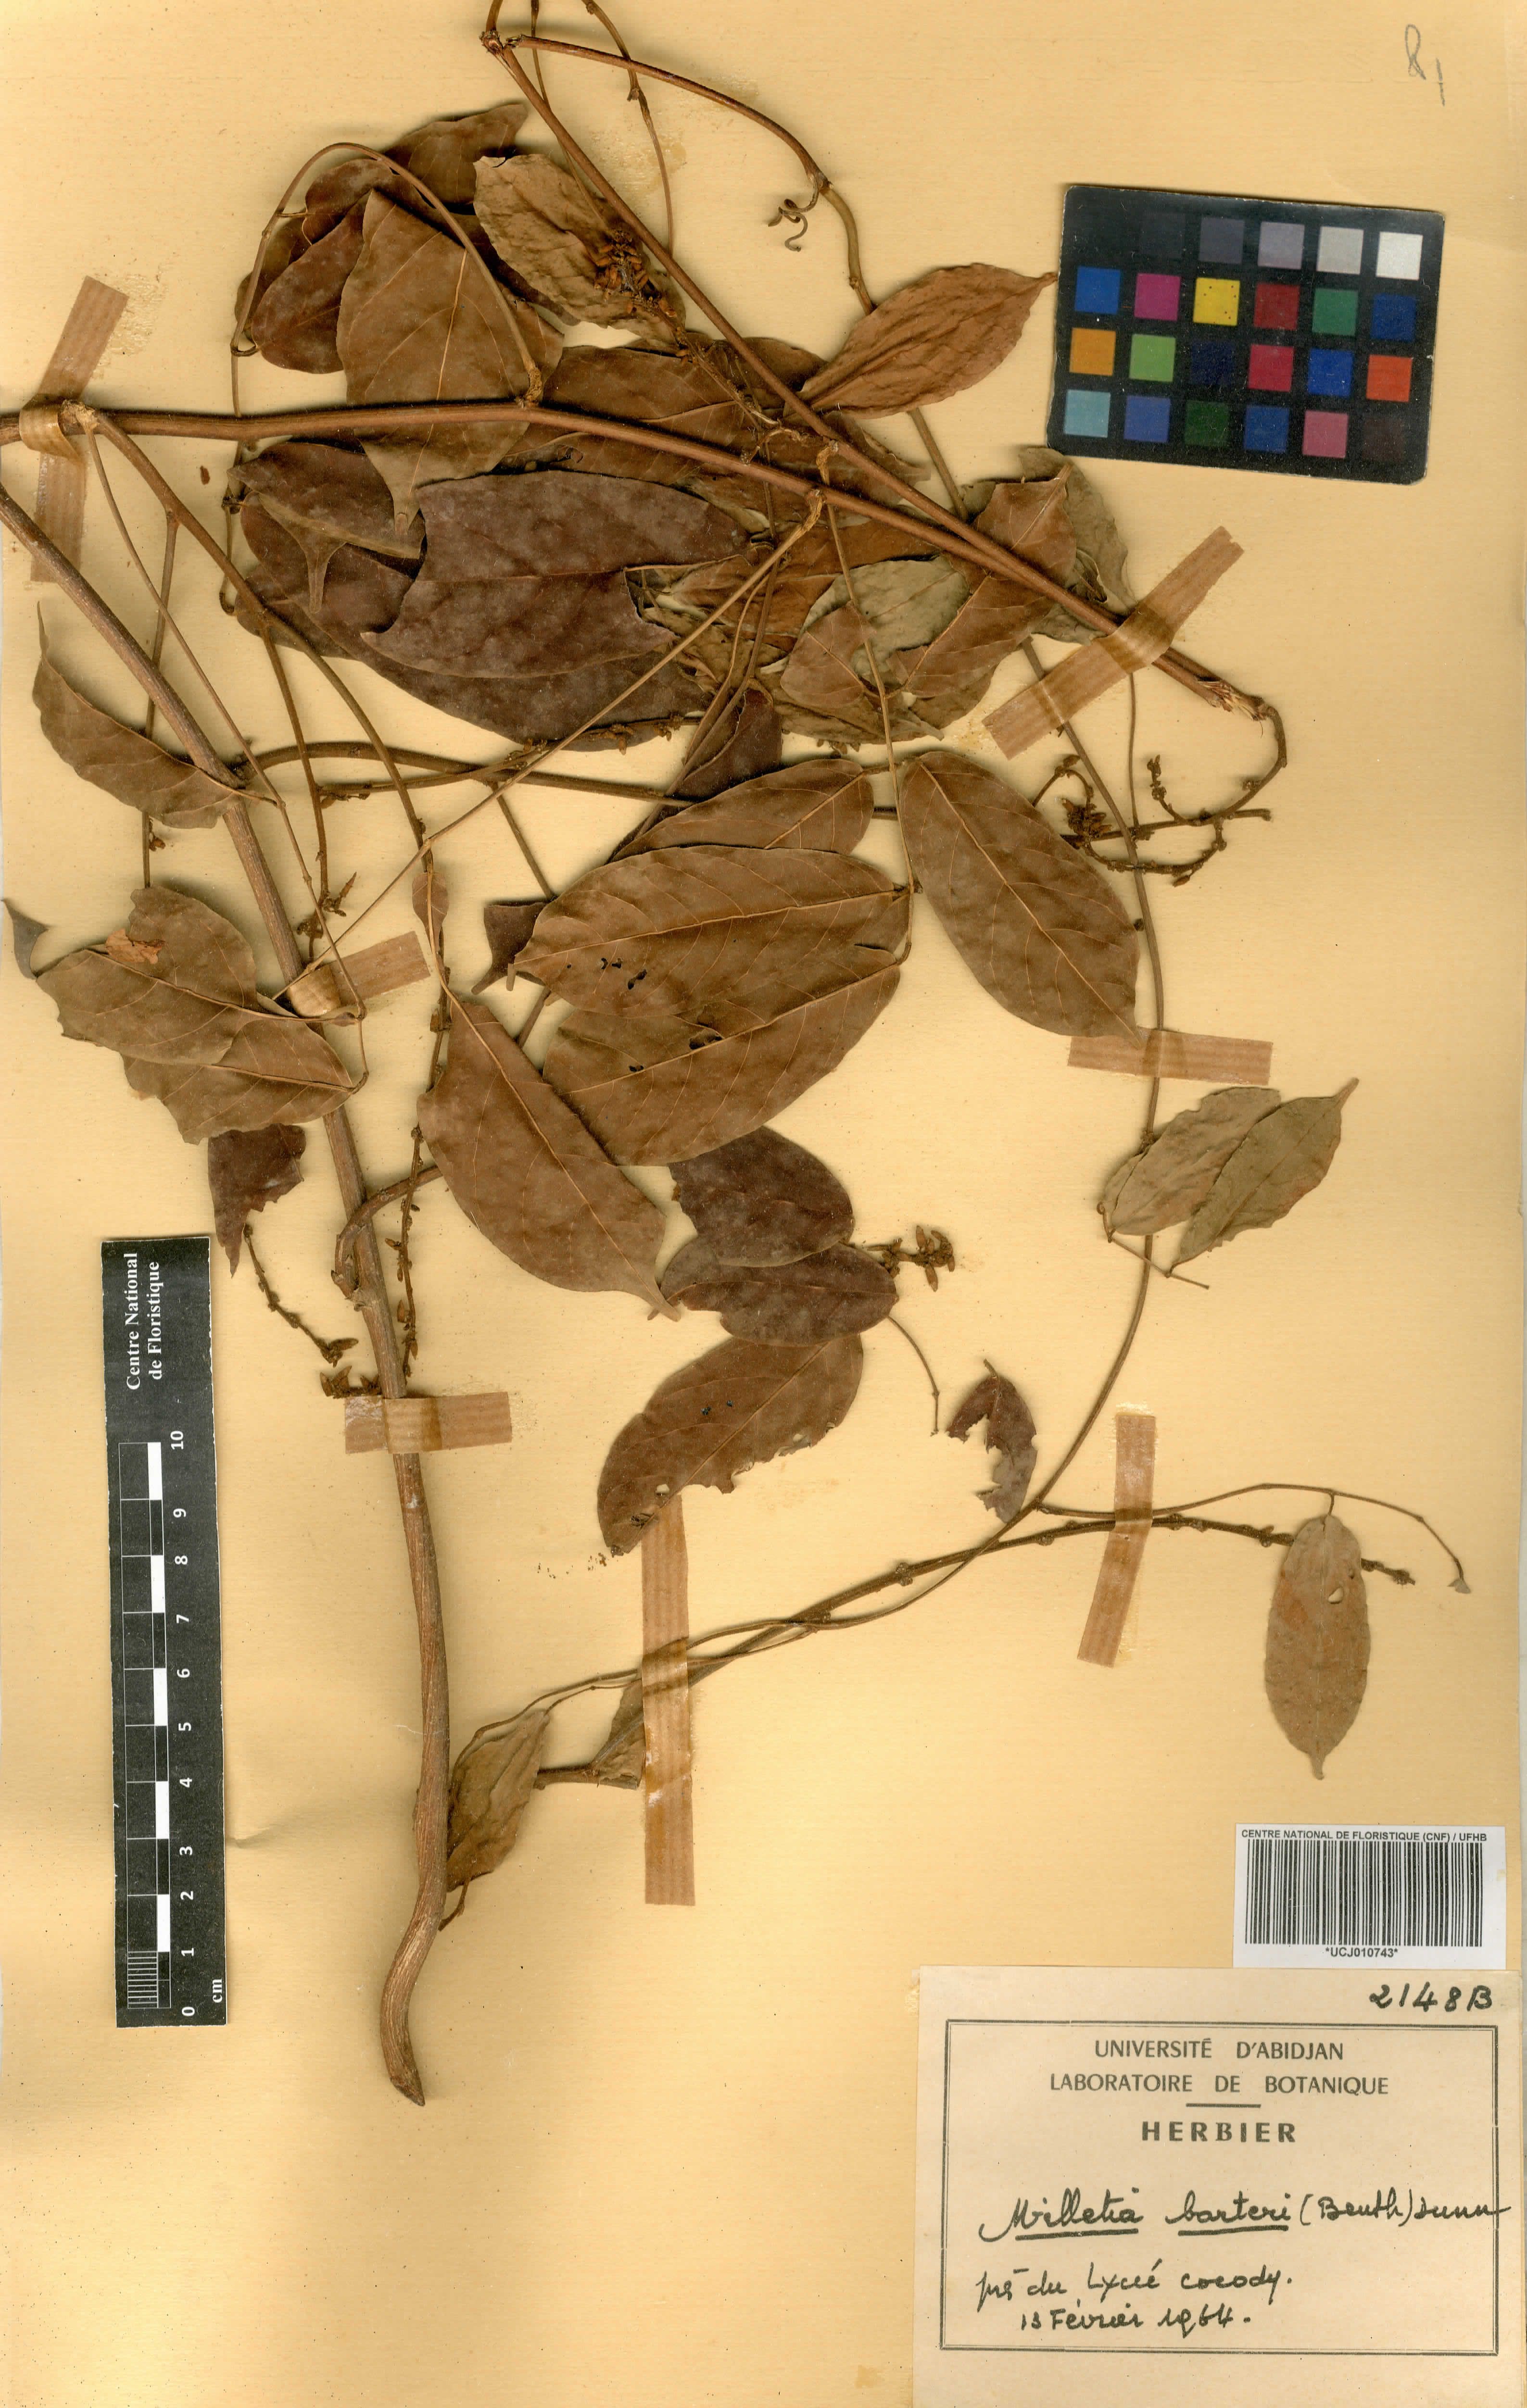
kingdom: Plantae
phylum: Tracheophyta
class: Magnoliopsida
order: Fabales
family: Fabaceae
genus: Millettia
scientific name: Millettia barteri
